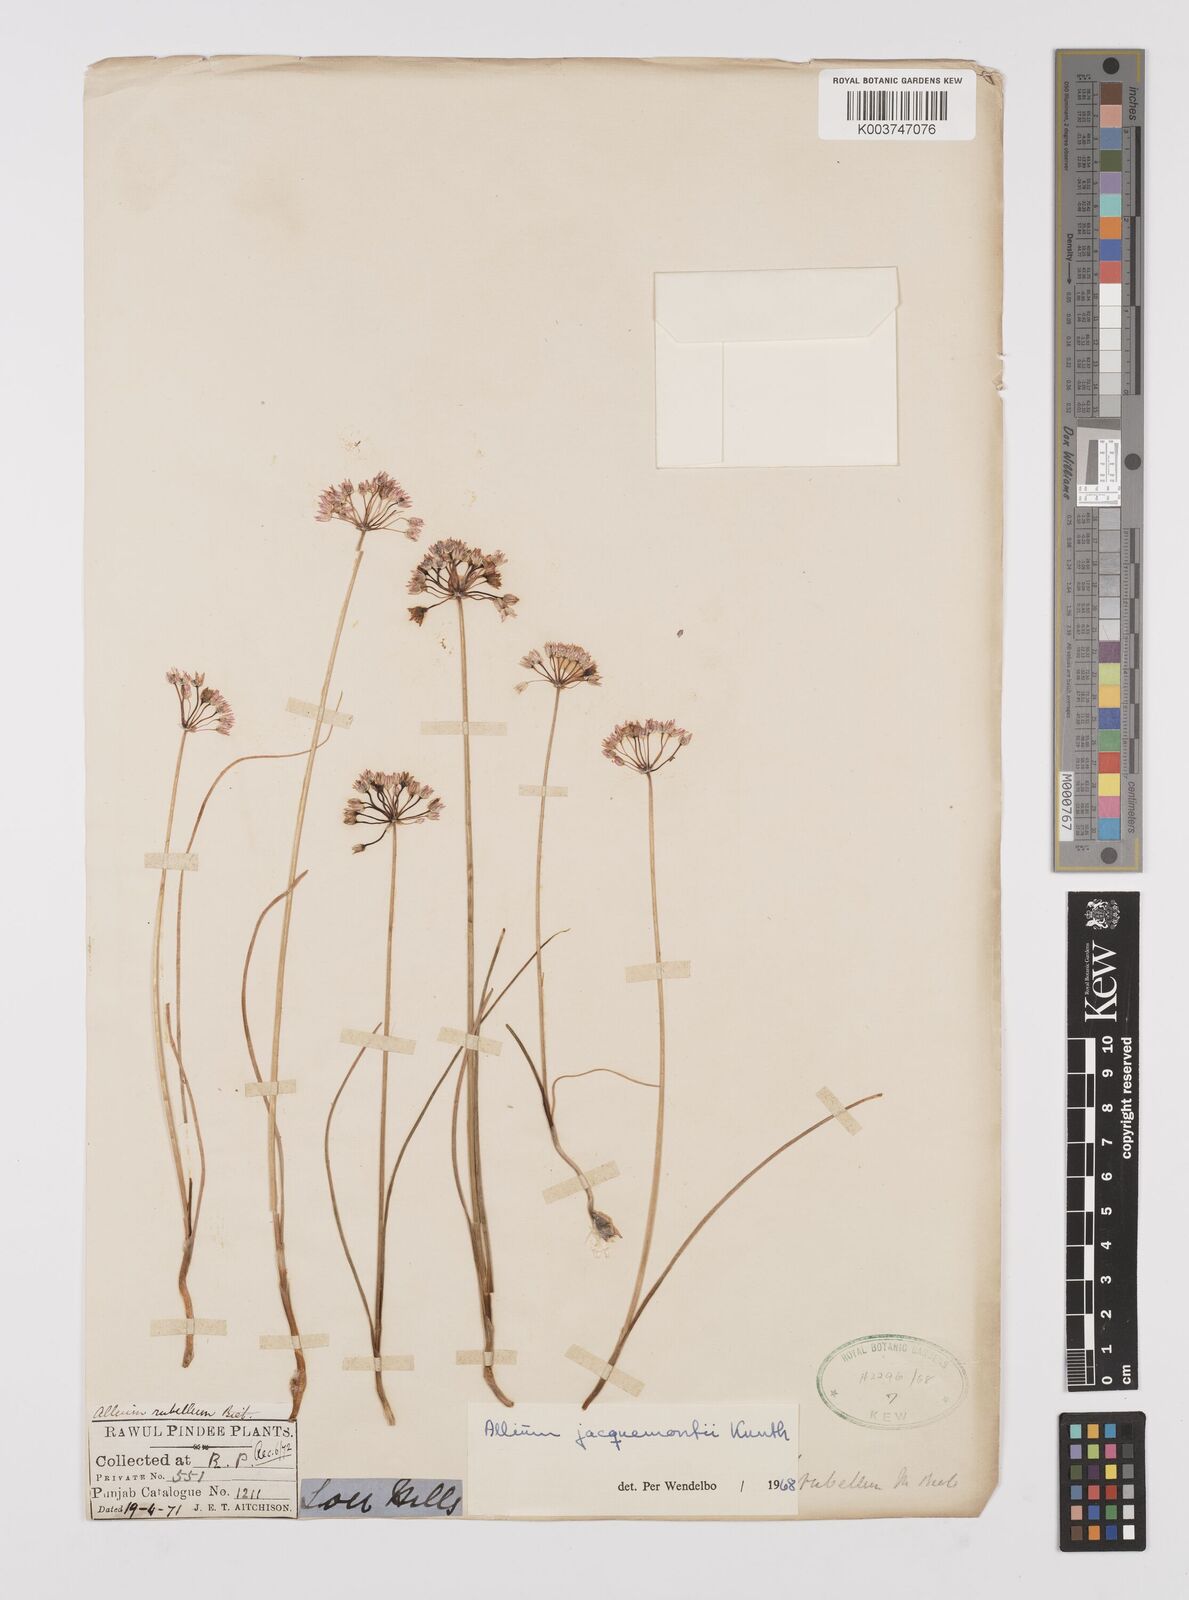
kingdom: Plantae
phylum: Tracheophyta
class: Liliopsida
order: Asparagales
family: Amaryllidaceae
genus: Allium
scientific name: Allium rubellum
